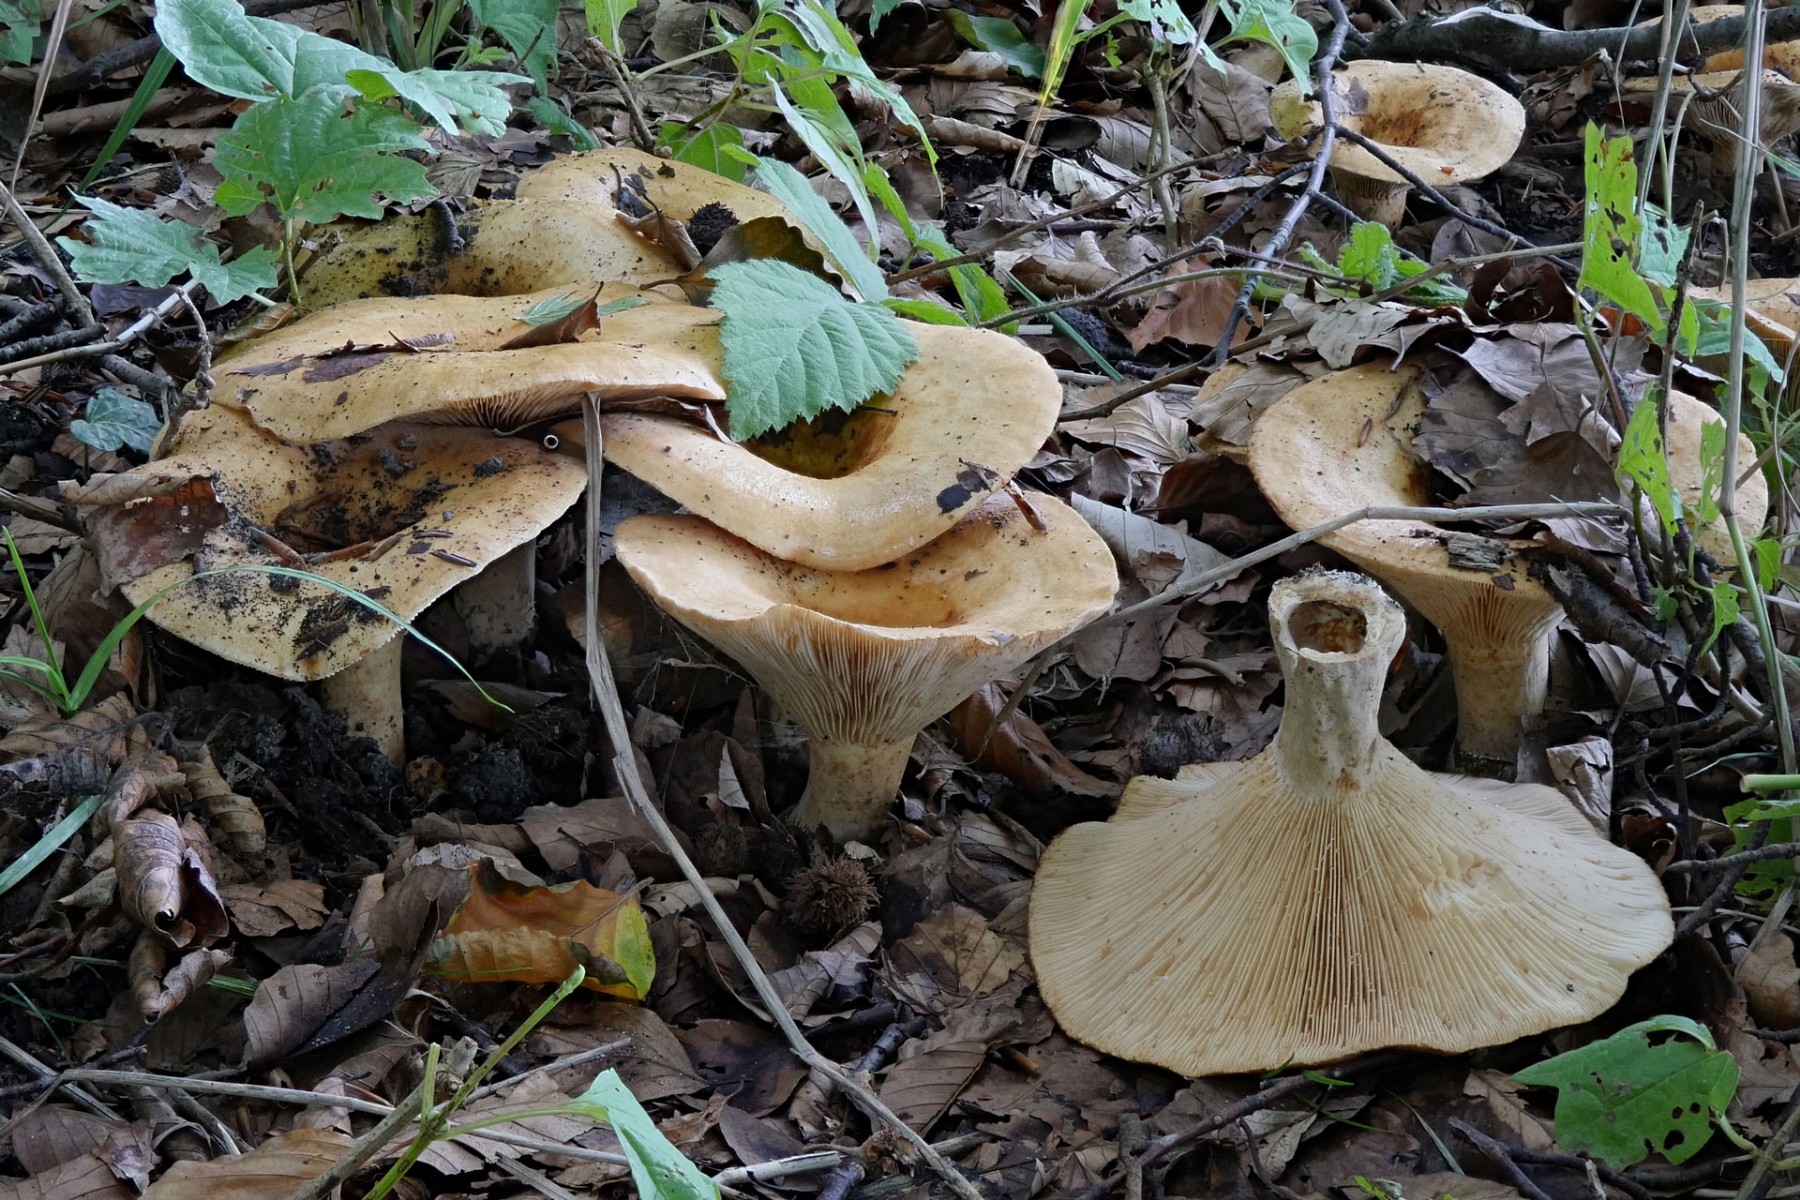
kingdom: Fungi
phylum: Basidiomycota
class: Agaricomycetes
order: Russulales
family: Russulaceae
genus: Lactarius
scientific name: Lactarius evosmus
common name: bæltet mælkehat
